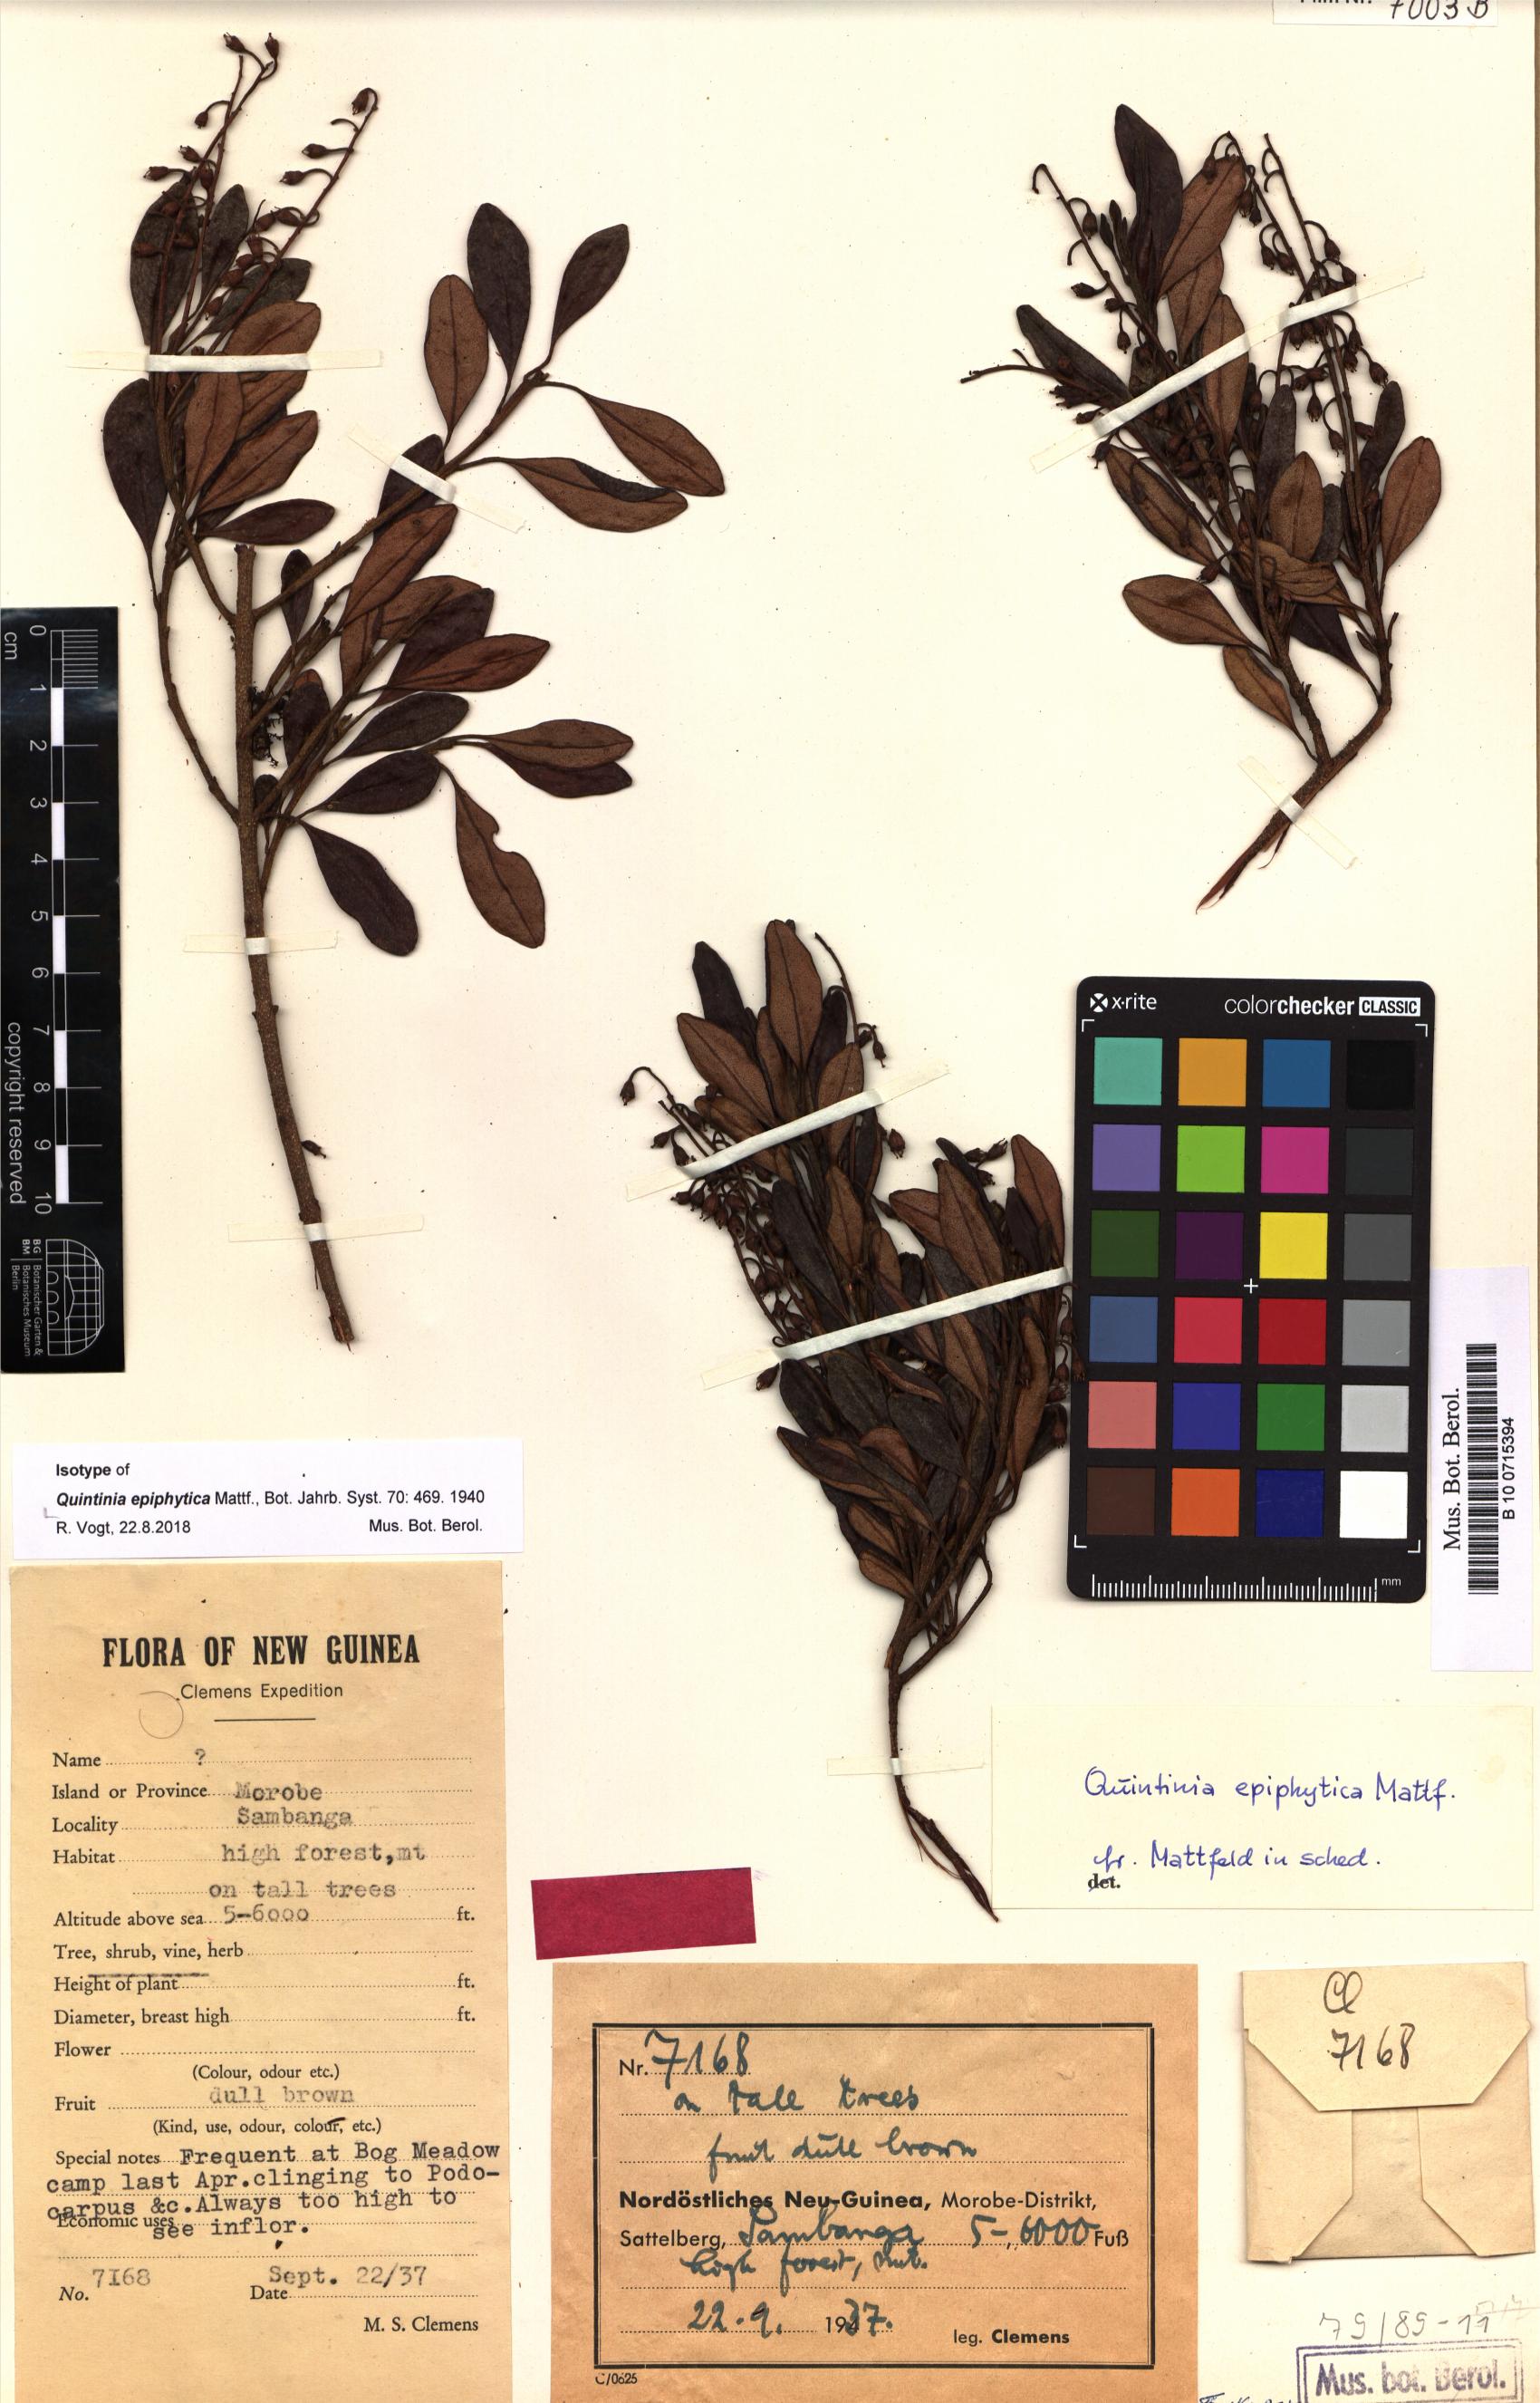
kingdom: Plantae
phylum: Tracheophyta
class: Magnoliopsida
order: Paracryphiales
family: Paracryphiaceae
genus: Quintinia
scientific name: Quintinia epiphytica
